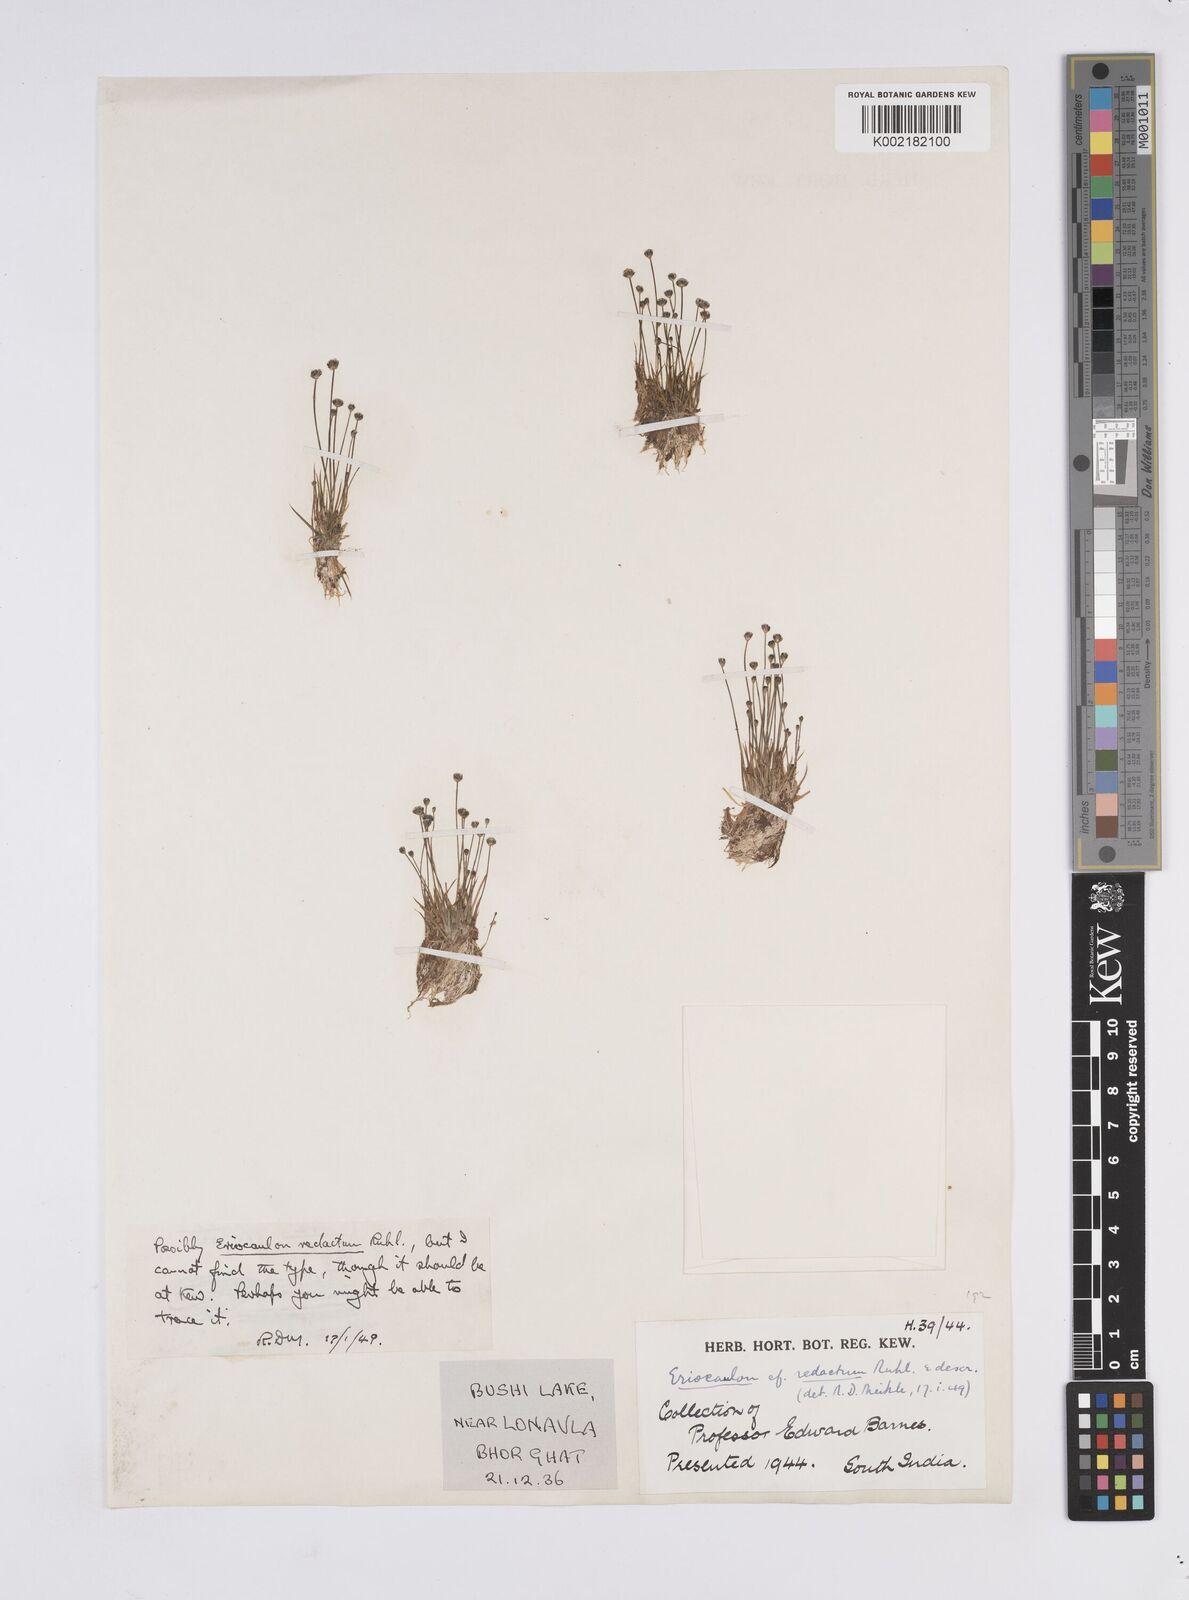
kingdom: Plantae
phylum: Tracheophyta
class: Liliopsida
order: Poales
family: Eriocaulaceae
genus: Eriocaulon
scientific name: Eriocaulon cinereum
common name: Ashy pipewort
